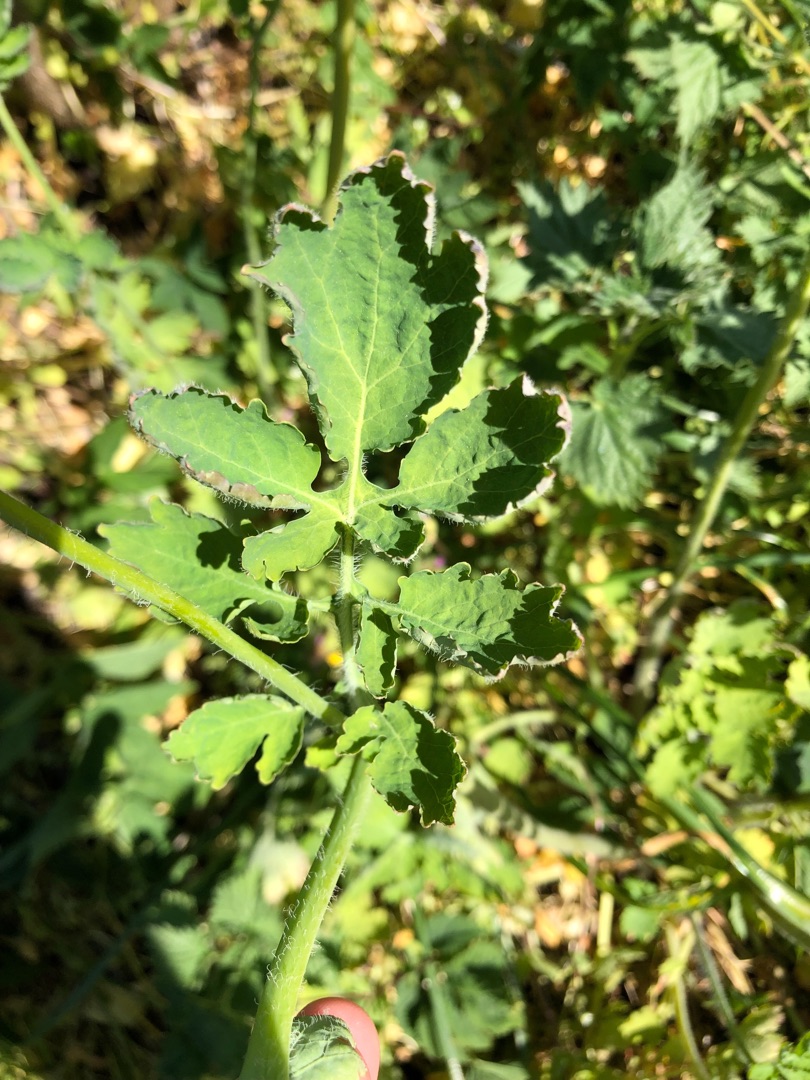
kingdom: Plantae
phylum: Tracheophyta
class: Magnoliopsida
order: Ranunculales
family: Papaveraceae
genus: Chelidonium
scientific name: Chelidonium majus
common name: Svaleurt
